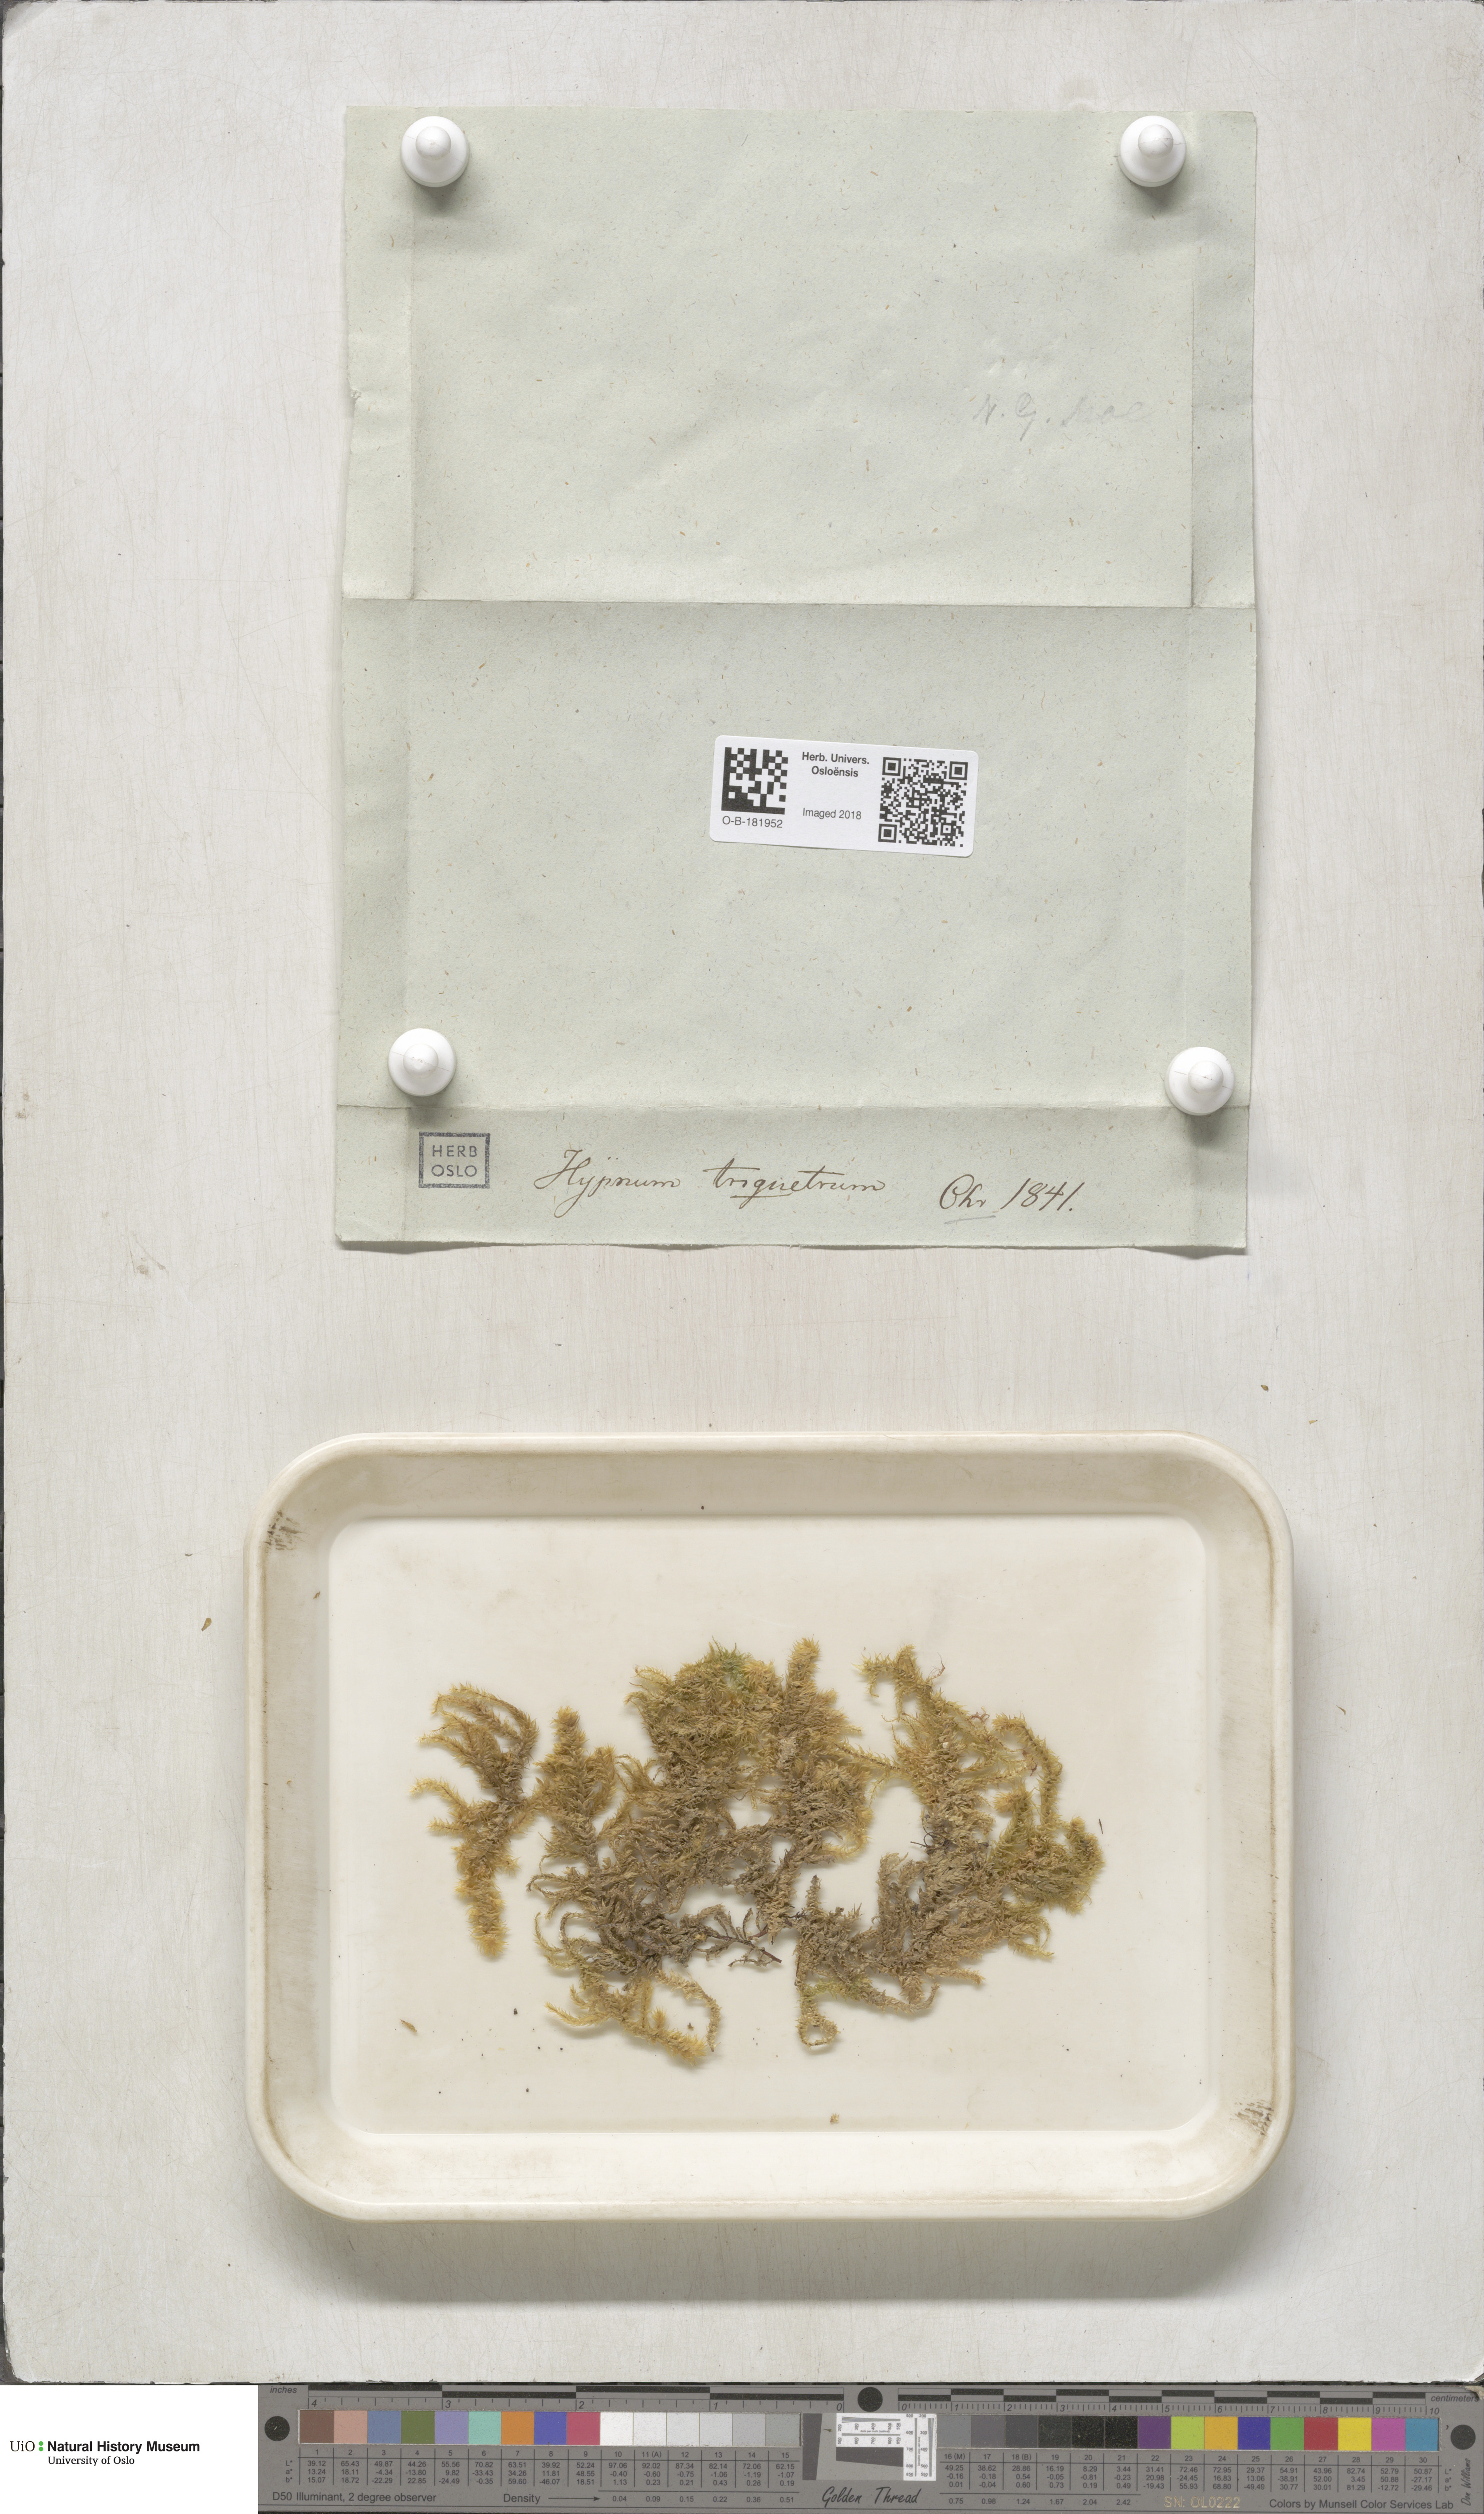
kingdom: Plantae
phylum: Bryophyta
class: Bryopsida
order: Hypnales
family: Hylocomiaceae
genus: Hylocomiadelphus
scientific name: Hylocomiadelphus triquetrus
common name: Rough goose neck moss
